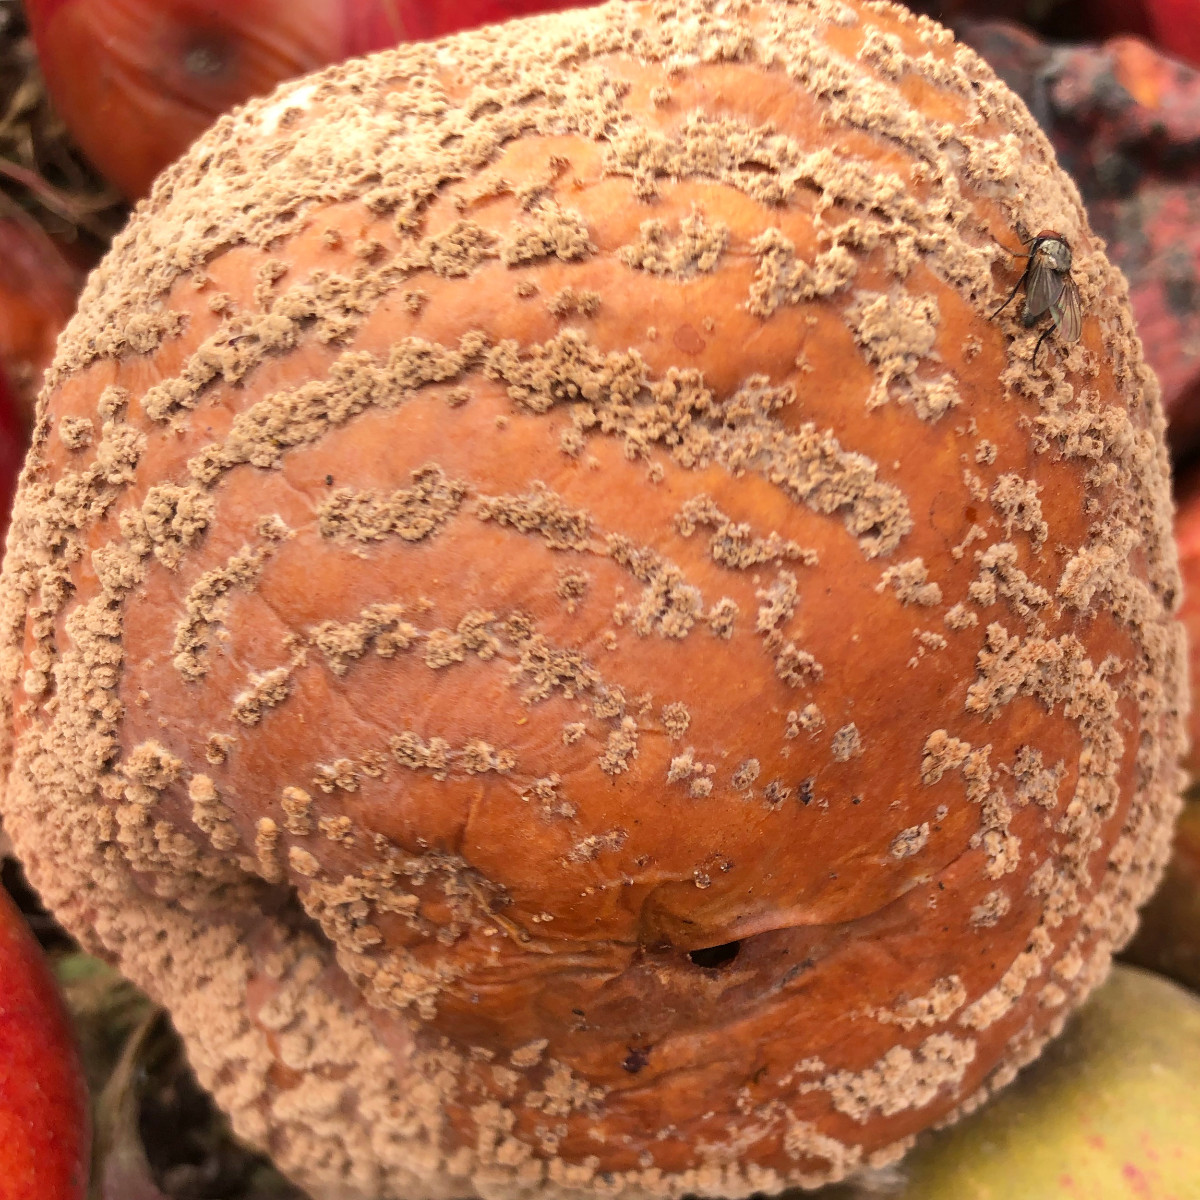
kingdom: Fungi
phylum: Ascomycota
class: Leotiomycetes
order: Helotiales
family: Sclerotiniaceae
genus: Monilinia
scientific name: Monilinia fructigena
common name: æble-knoldskive
